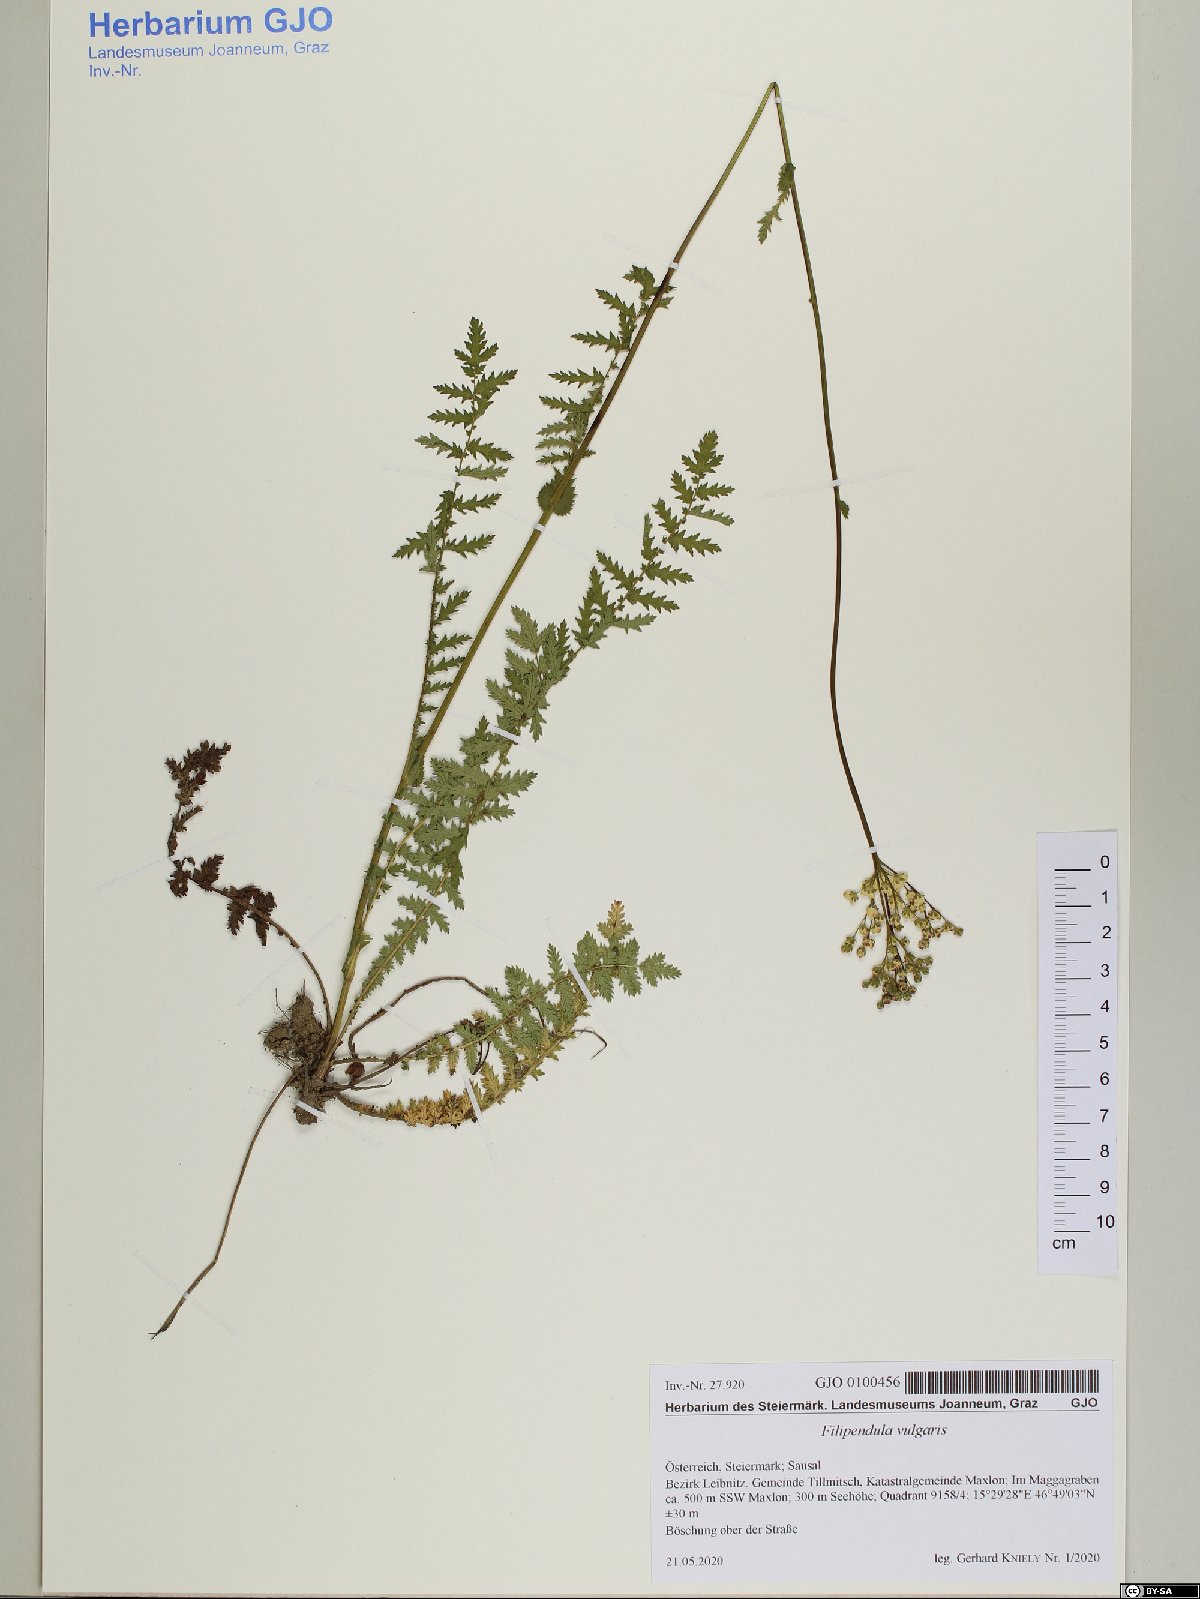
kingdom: Plantae
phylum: Tracheophyta
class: Magnoliopsida
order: Rosales
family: Rosaceae
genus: Filipendula
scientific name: Filipendula vulgaris
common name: Dropwort
